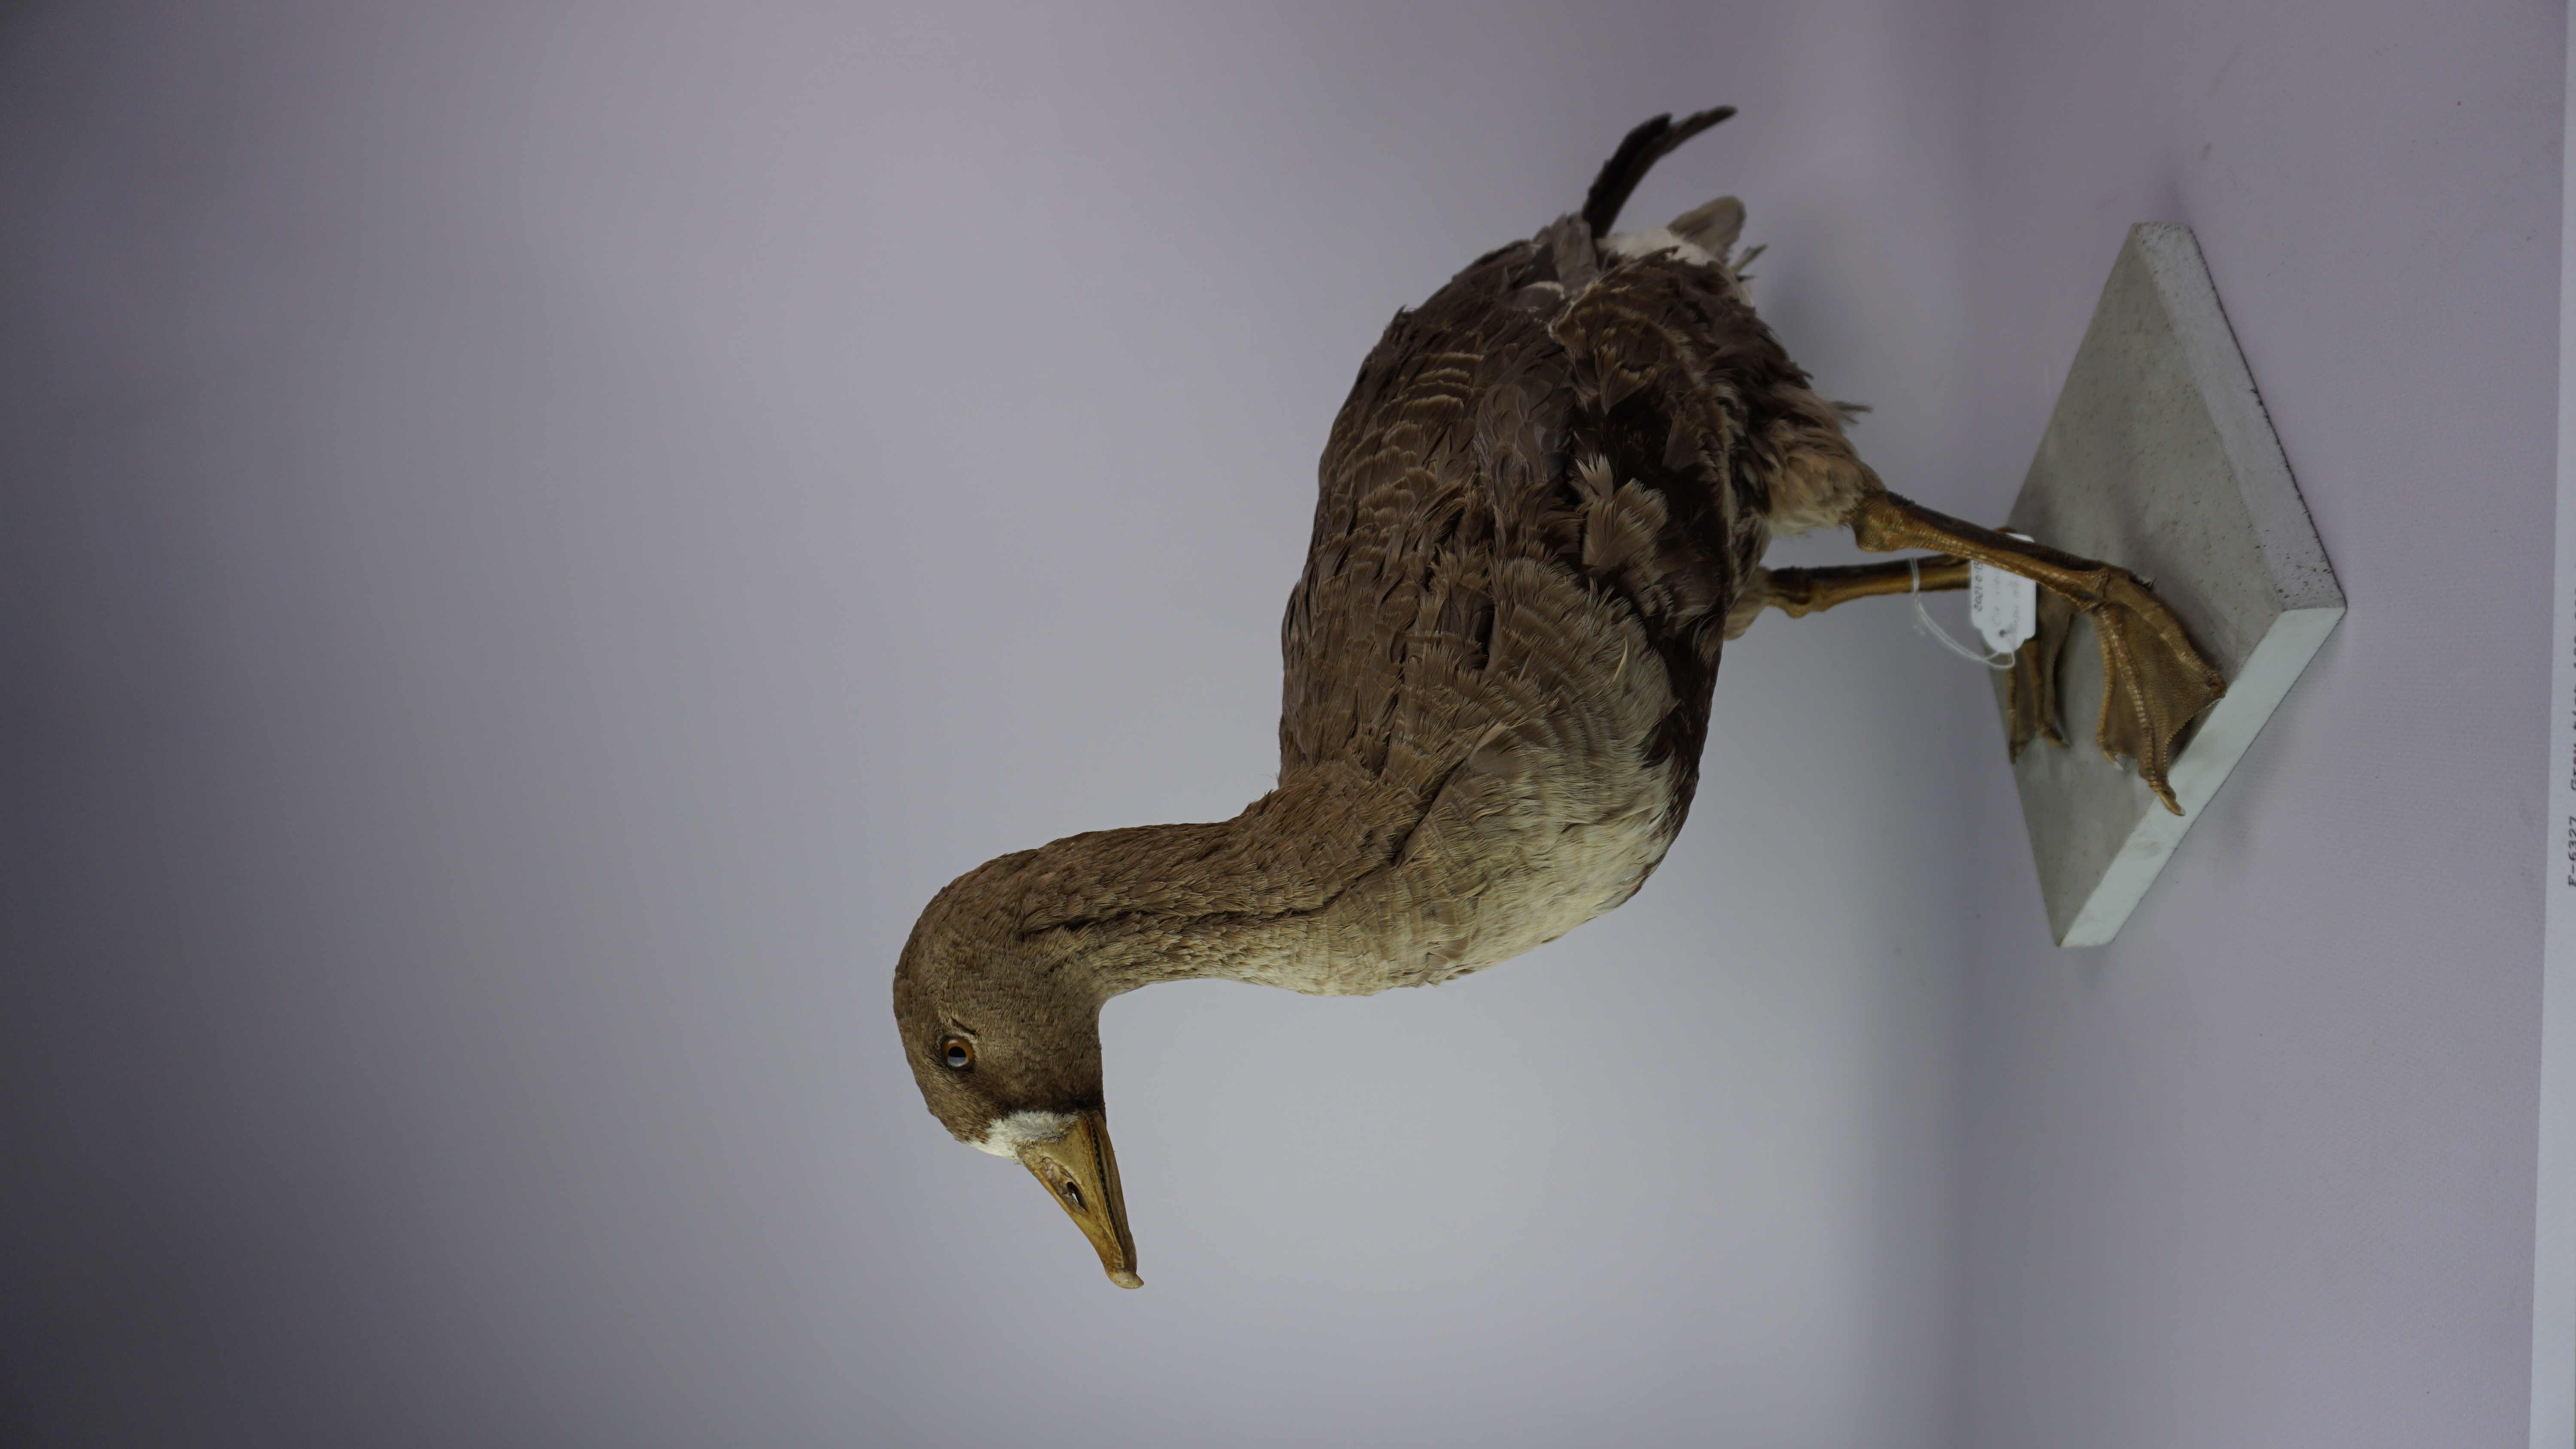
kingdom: Animalia
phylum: Chordata
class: Aves
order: Anseriformes
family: Anatidae
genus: Anser
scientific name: Anser albifrons
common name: Greater white-fronted goose
